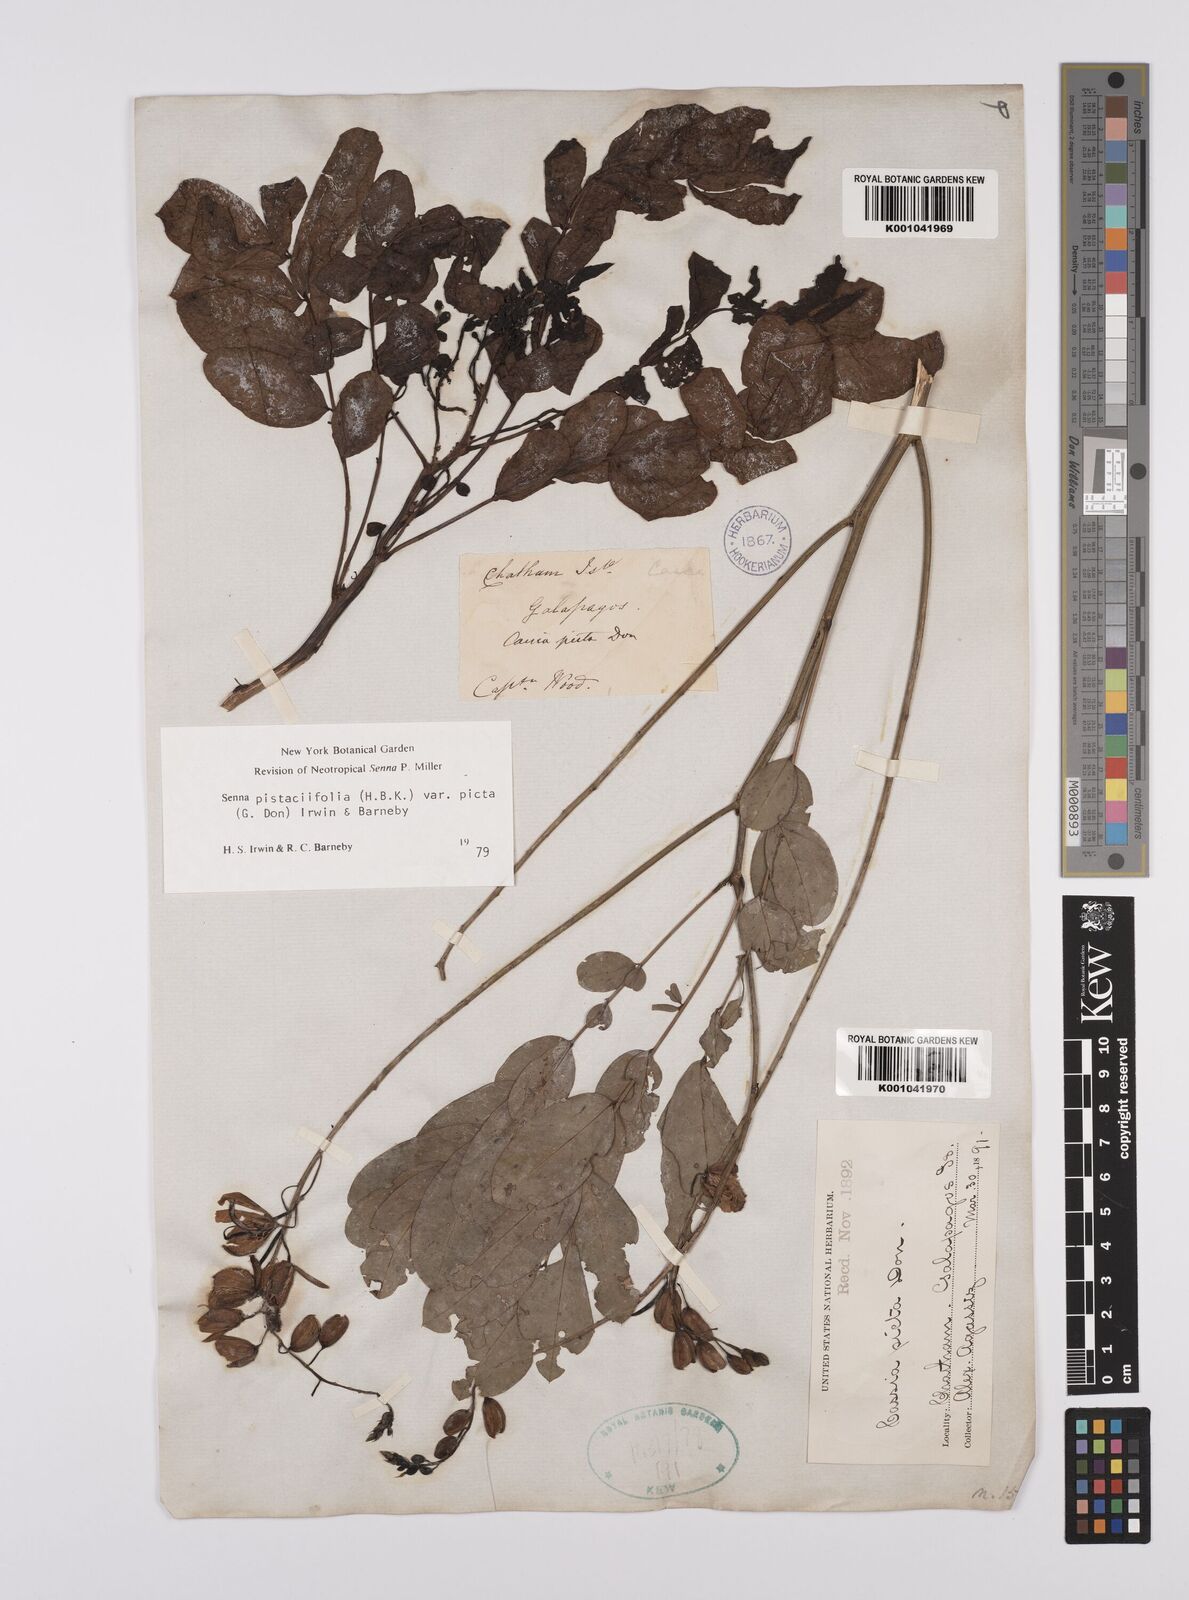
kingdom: Plantae
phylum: Tracheophyta
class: Magnoliopsida
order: Fabales
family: Fabaceae
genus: Senna
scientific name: Senna pistaciifolia
